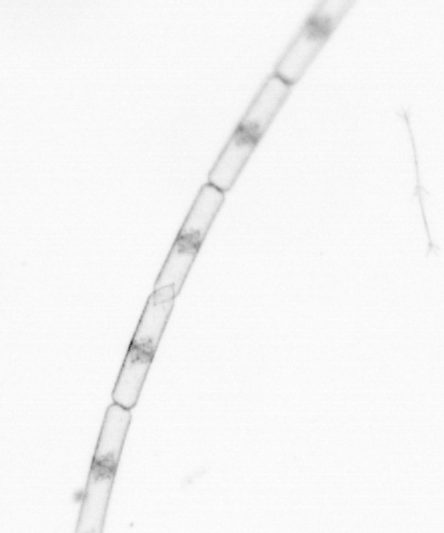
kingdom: Chromista
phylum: Ochrophyta
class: Bacillariophyceae
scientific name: Bacillariophyceae
